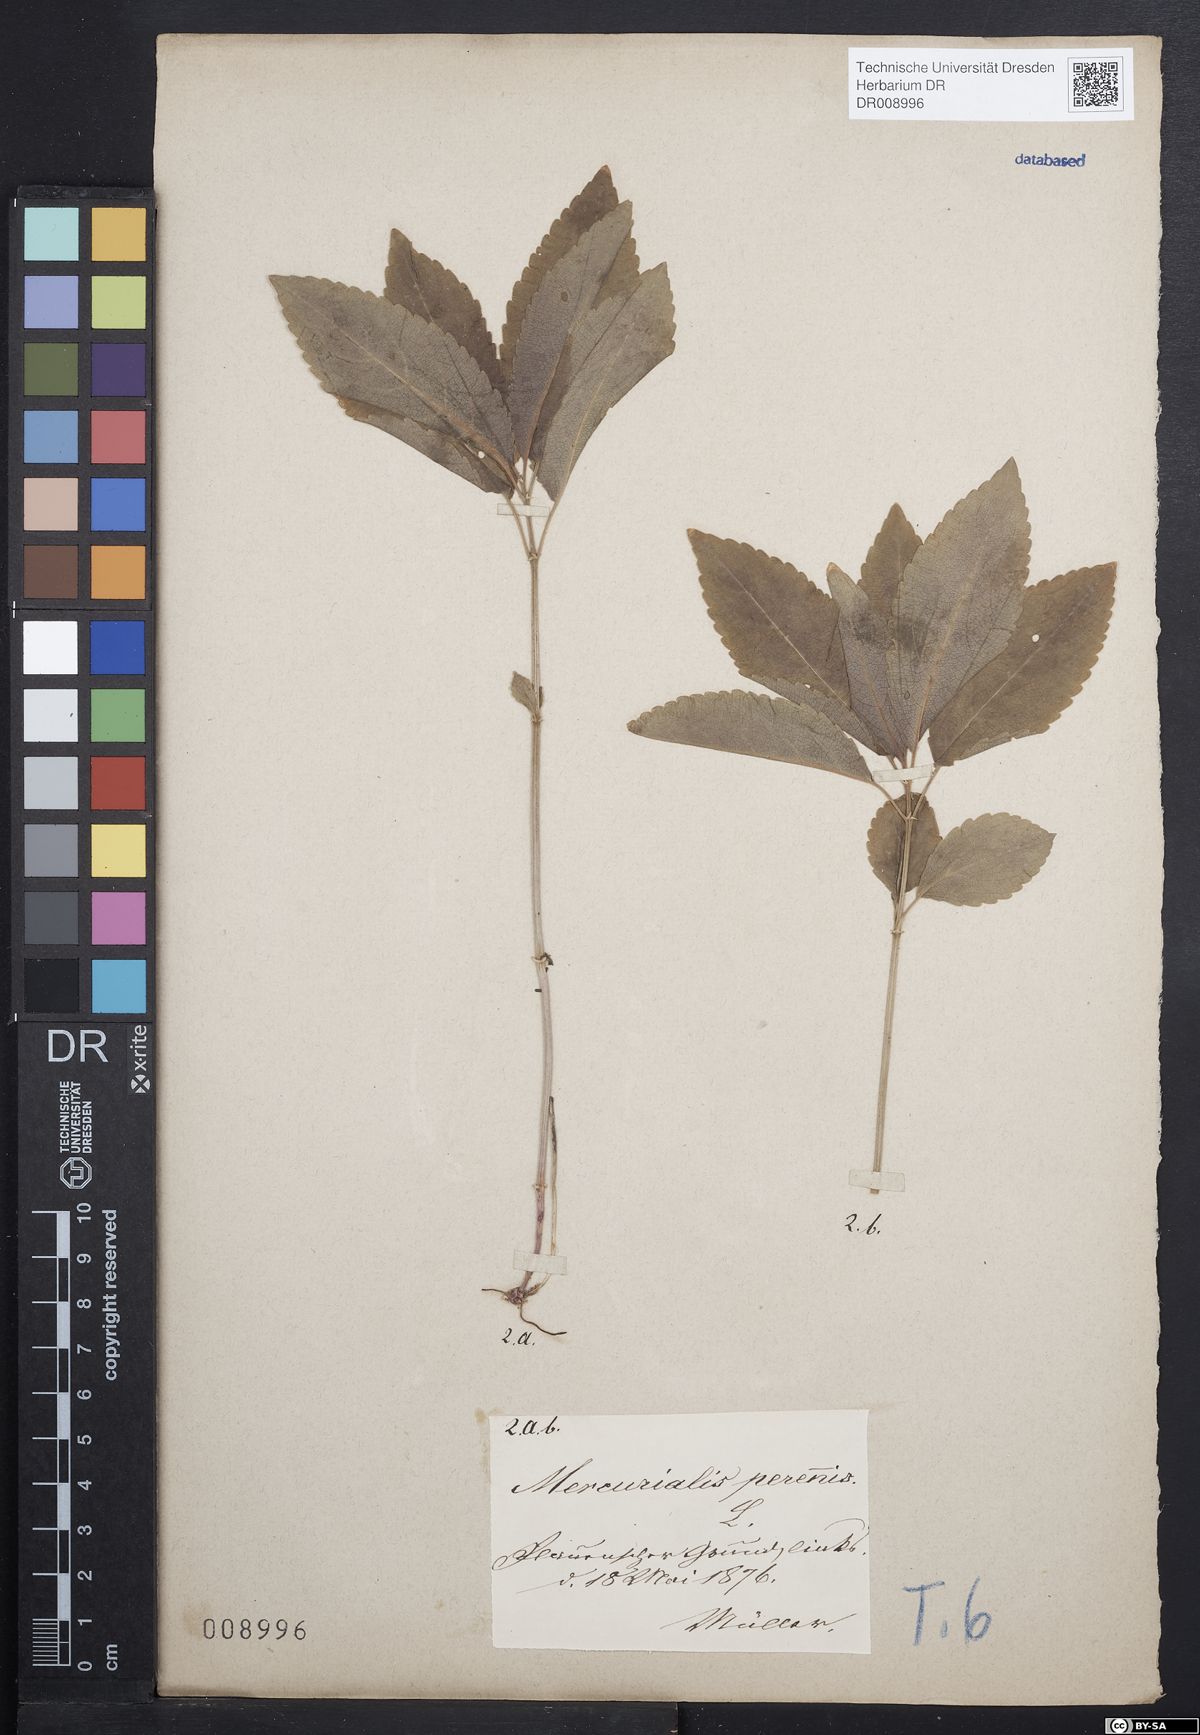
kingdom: Plantae
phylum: Tracheophyta
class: Magnoliopsida
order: Malpighiales
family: Euphorbiaceae
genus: Mercurialis
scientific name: Mercurialis perennis
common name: Dog mercury
